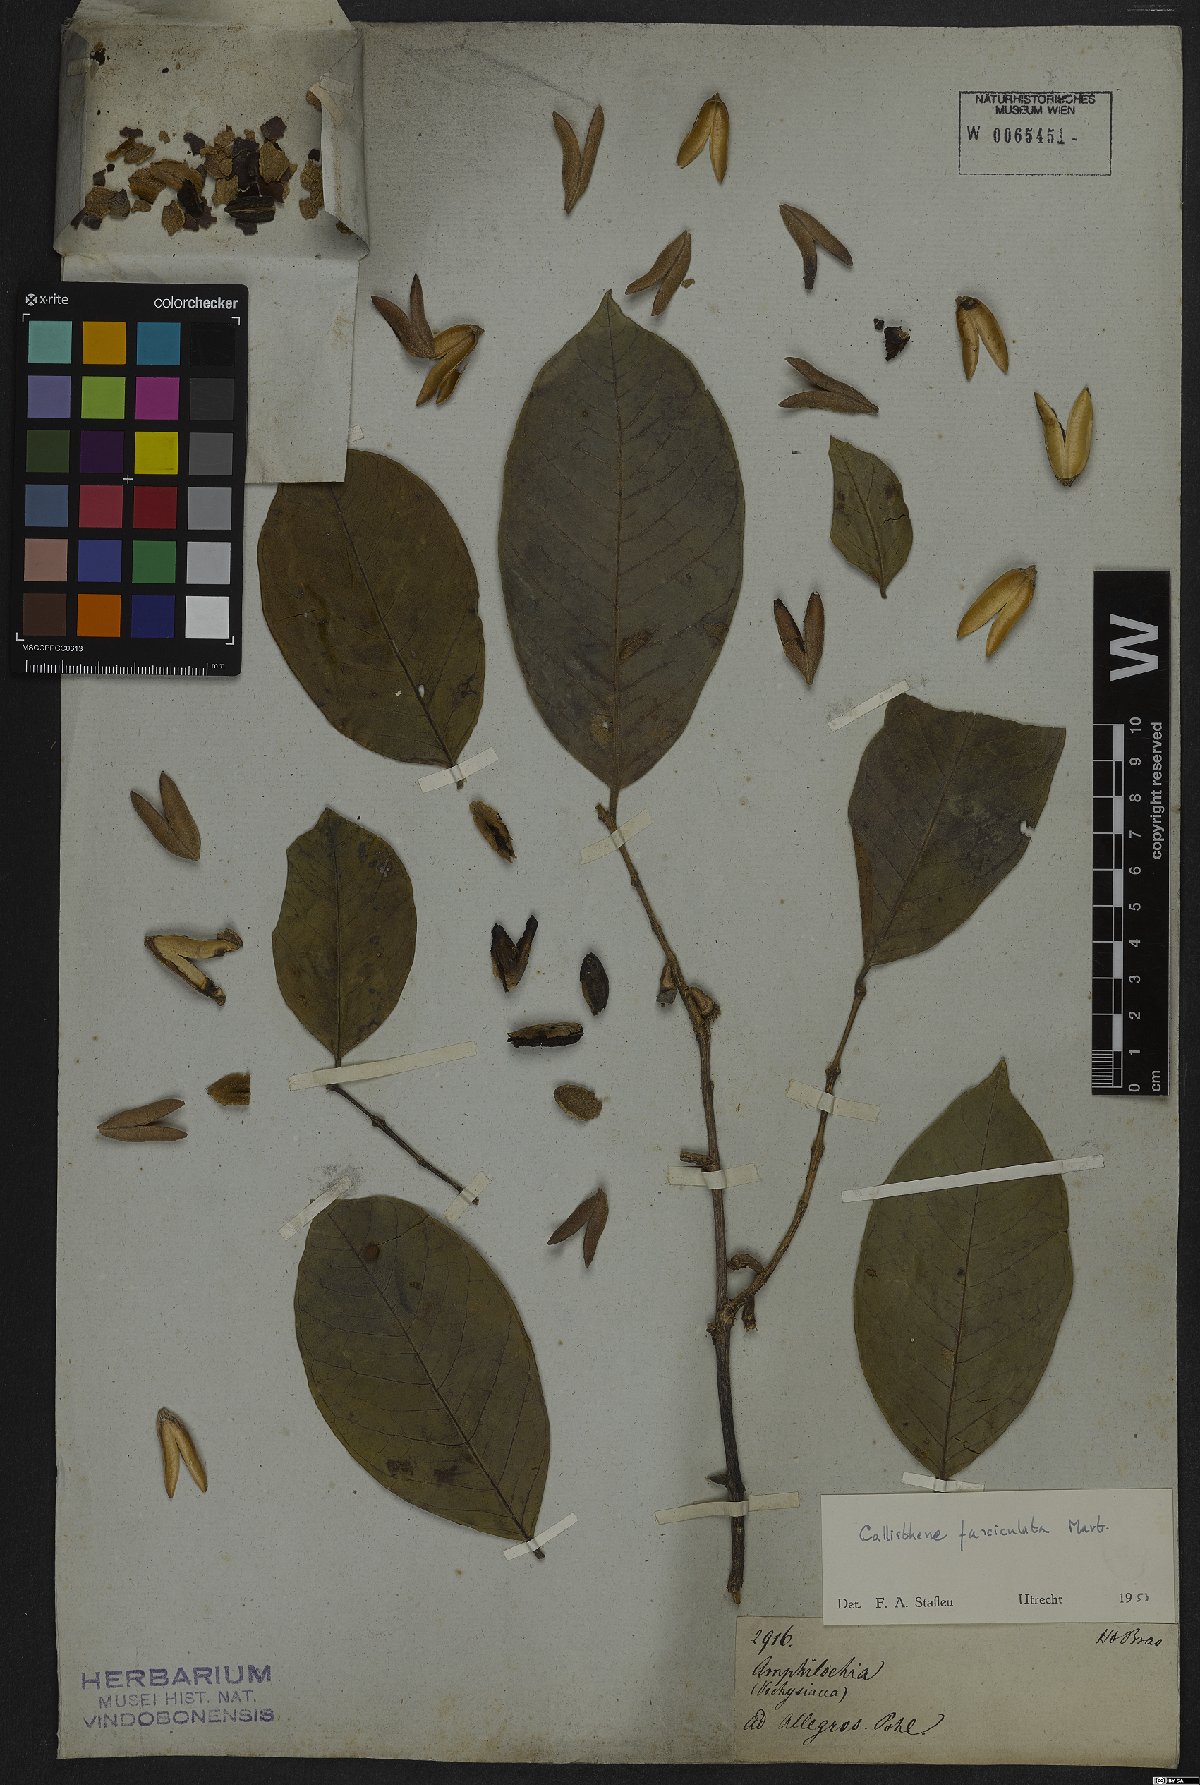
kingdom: Plantae
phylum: Tracheophyta
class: Magnoliopsida
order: Myrtales
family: Vochysiaceae
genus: Callisthene
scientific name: Callisthene fasciculata
